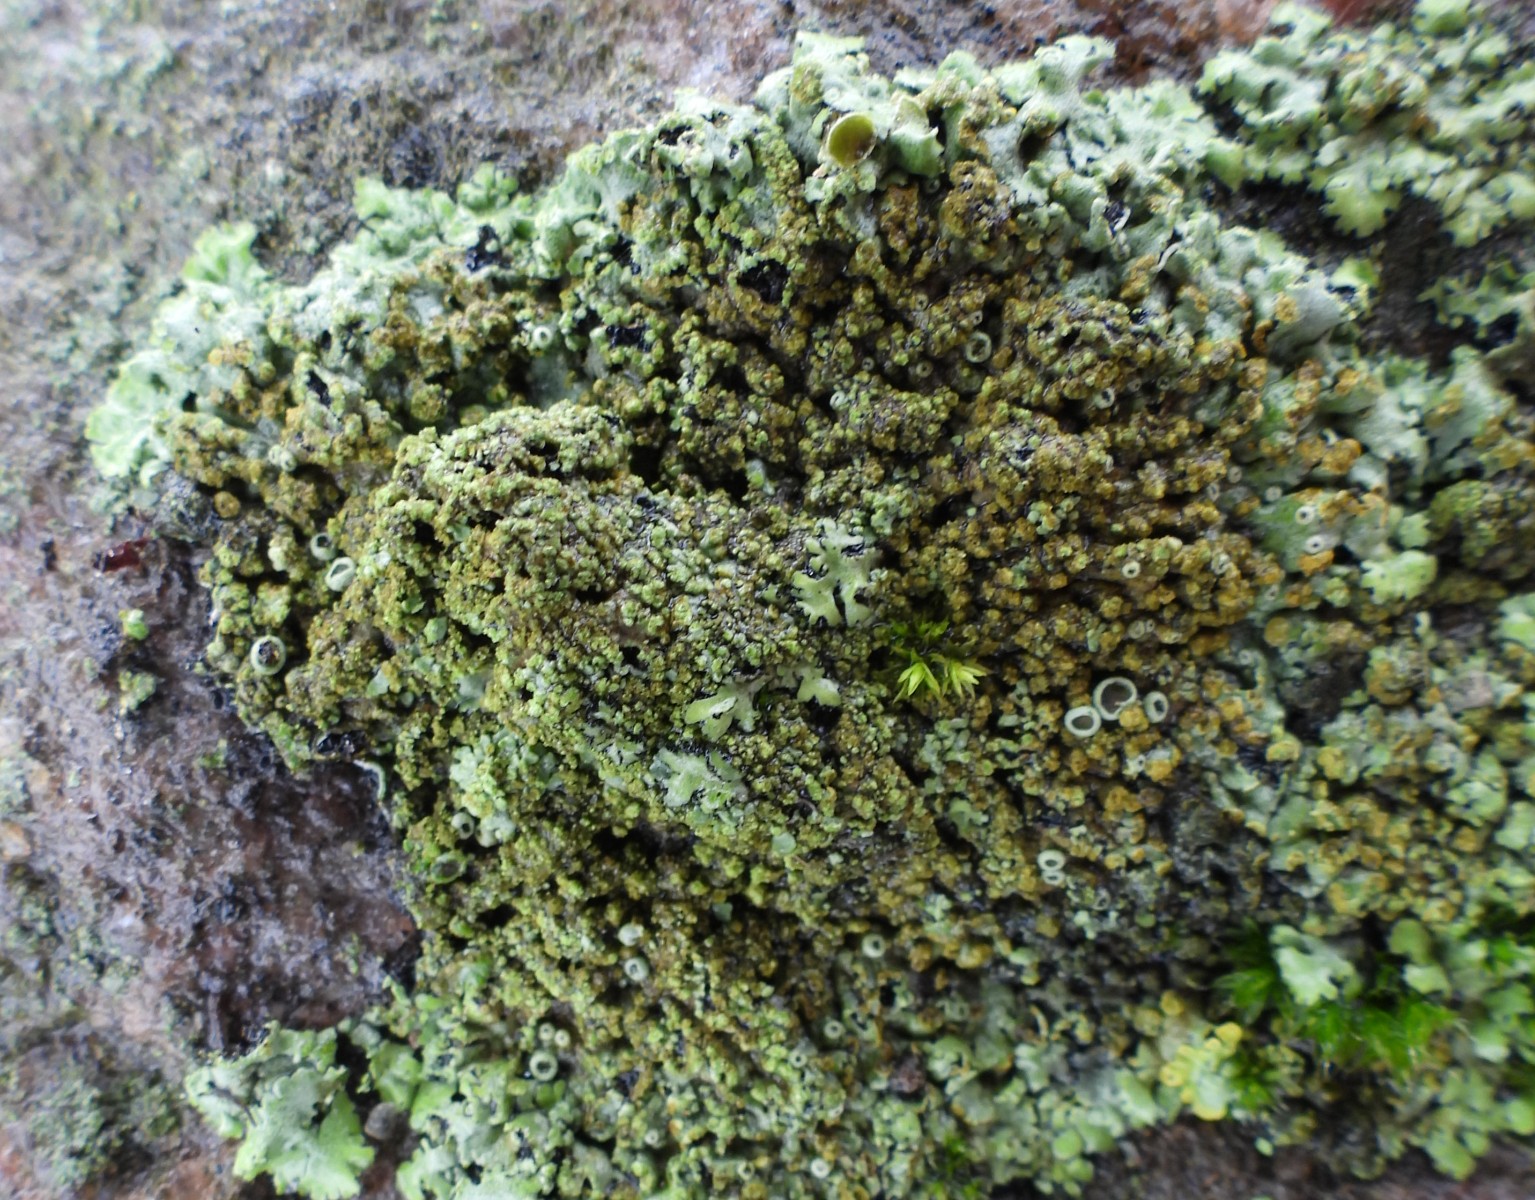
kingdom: Fungi
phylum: Ascomycota
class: Lecanoromycetes
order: Caliciales
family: Physciaceae
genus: Phaeophyscia
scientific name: Phaeophyscia orbicularis
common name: grågrøn rosetlav
